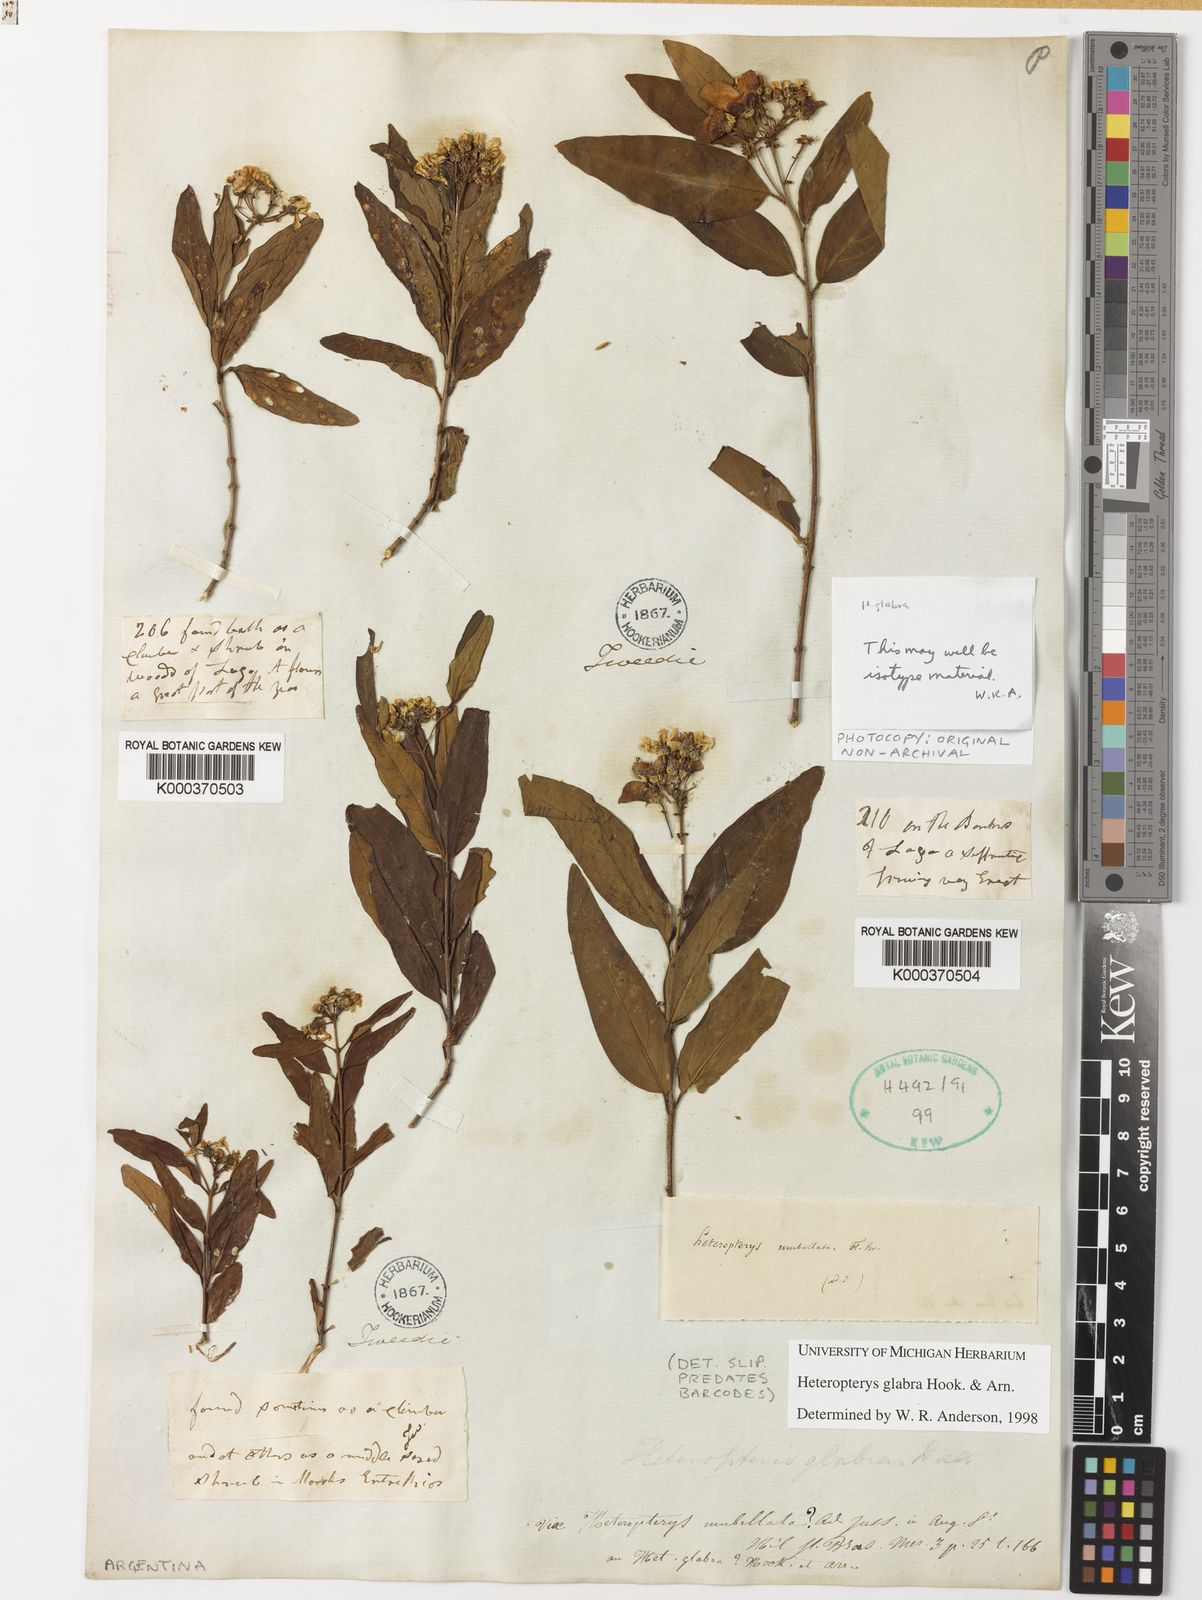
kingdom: Plantae
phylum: Tracheophyta
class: Magnoliopsida
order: Malpighiales
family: Malpighiaceae
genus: Heteropterys
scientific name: Heteropterys glabra
